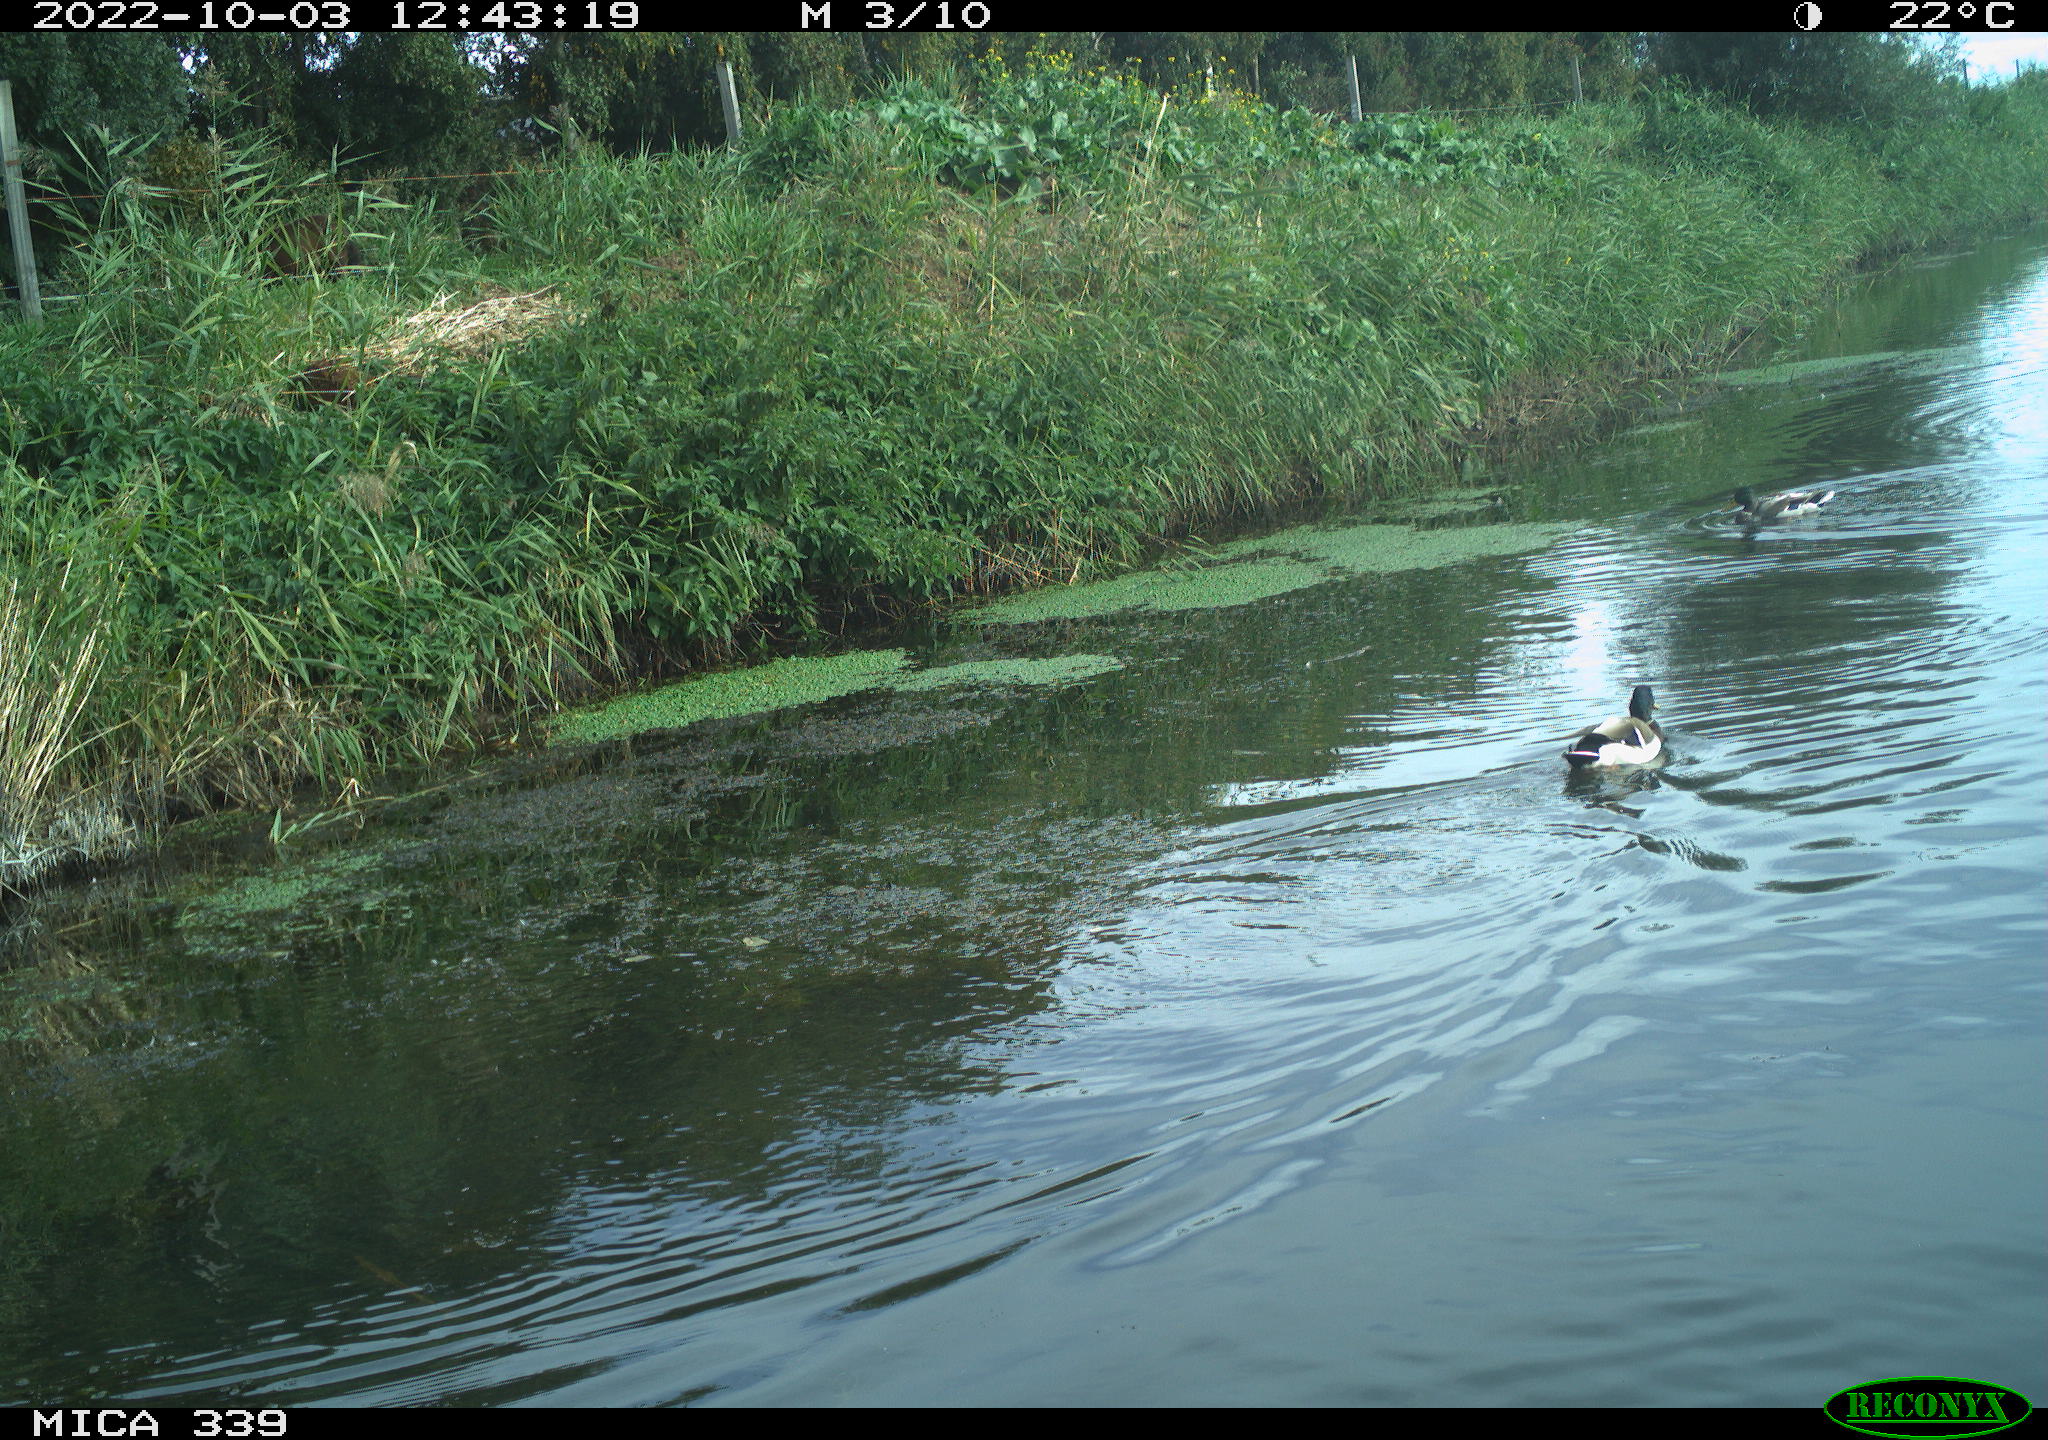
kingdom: Animalia
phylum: Chordata
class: Aves
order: Anseriformes
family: Anatidae
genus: Anas
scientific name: Anas platyrhynchos
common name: Mallard
